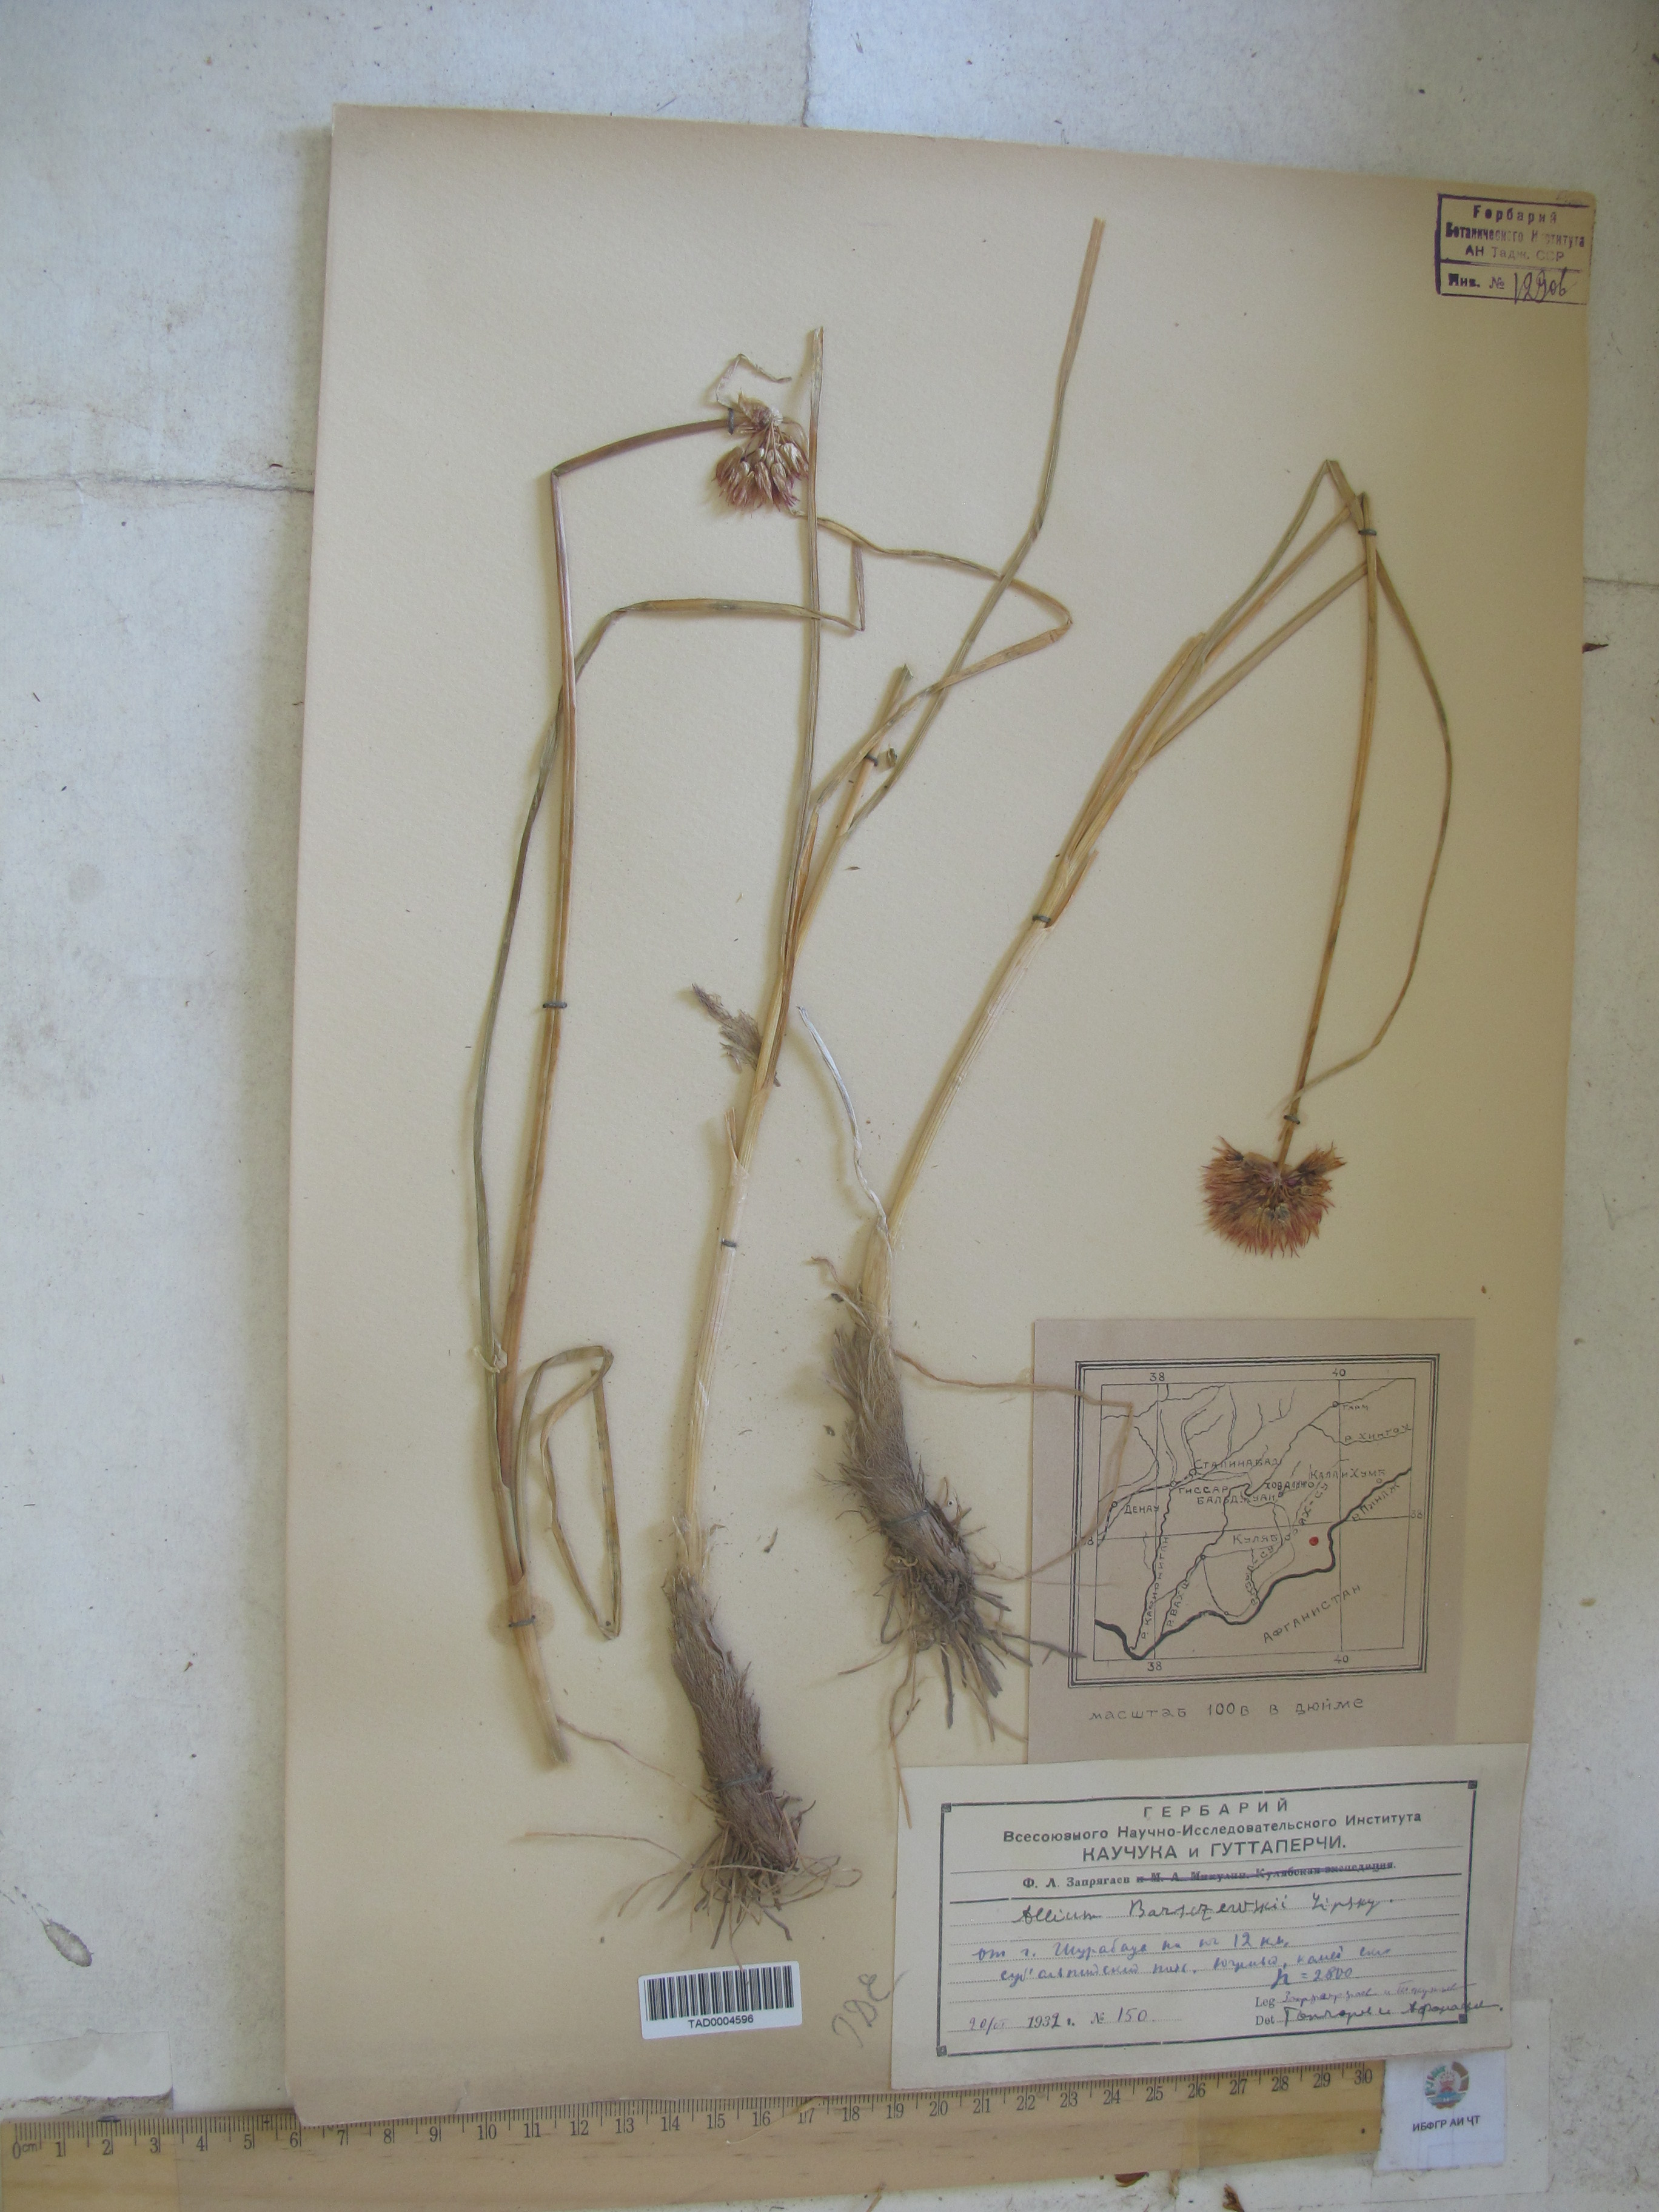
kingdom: Plantae
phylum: Tracheophyta
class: Liliopsida
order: Asparagales
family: Amaryllidaceae
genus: Allium
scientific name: Allium barsczewskii
